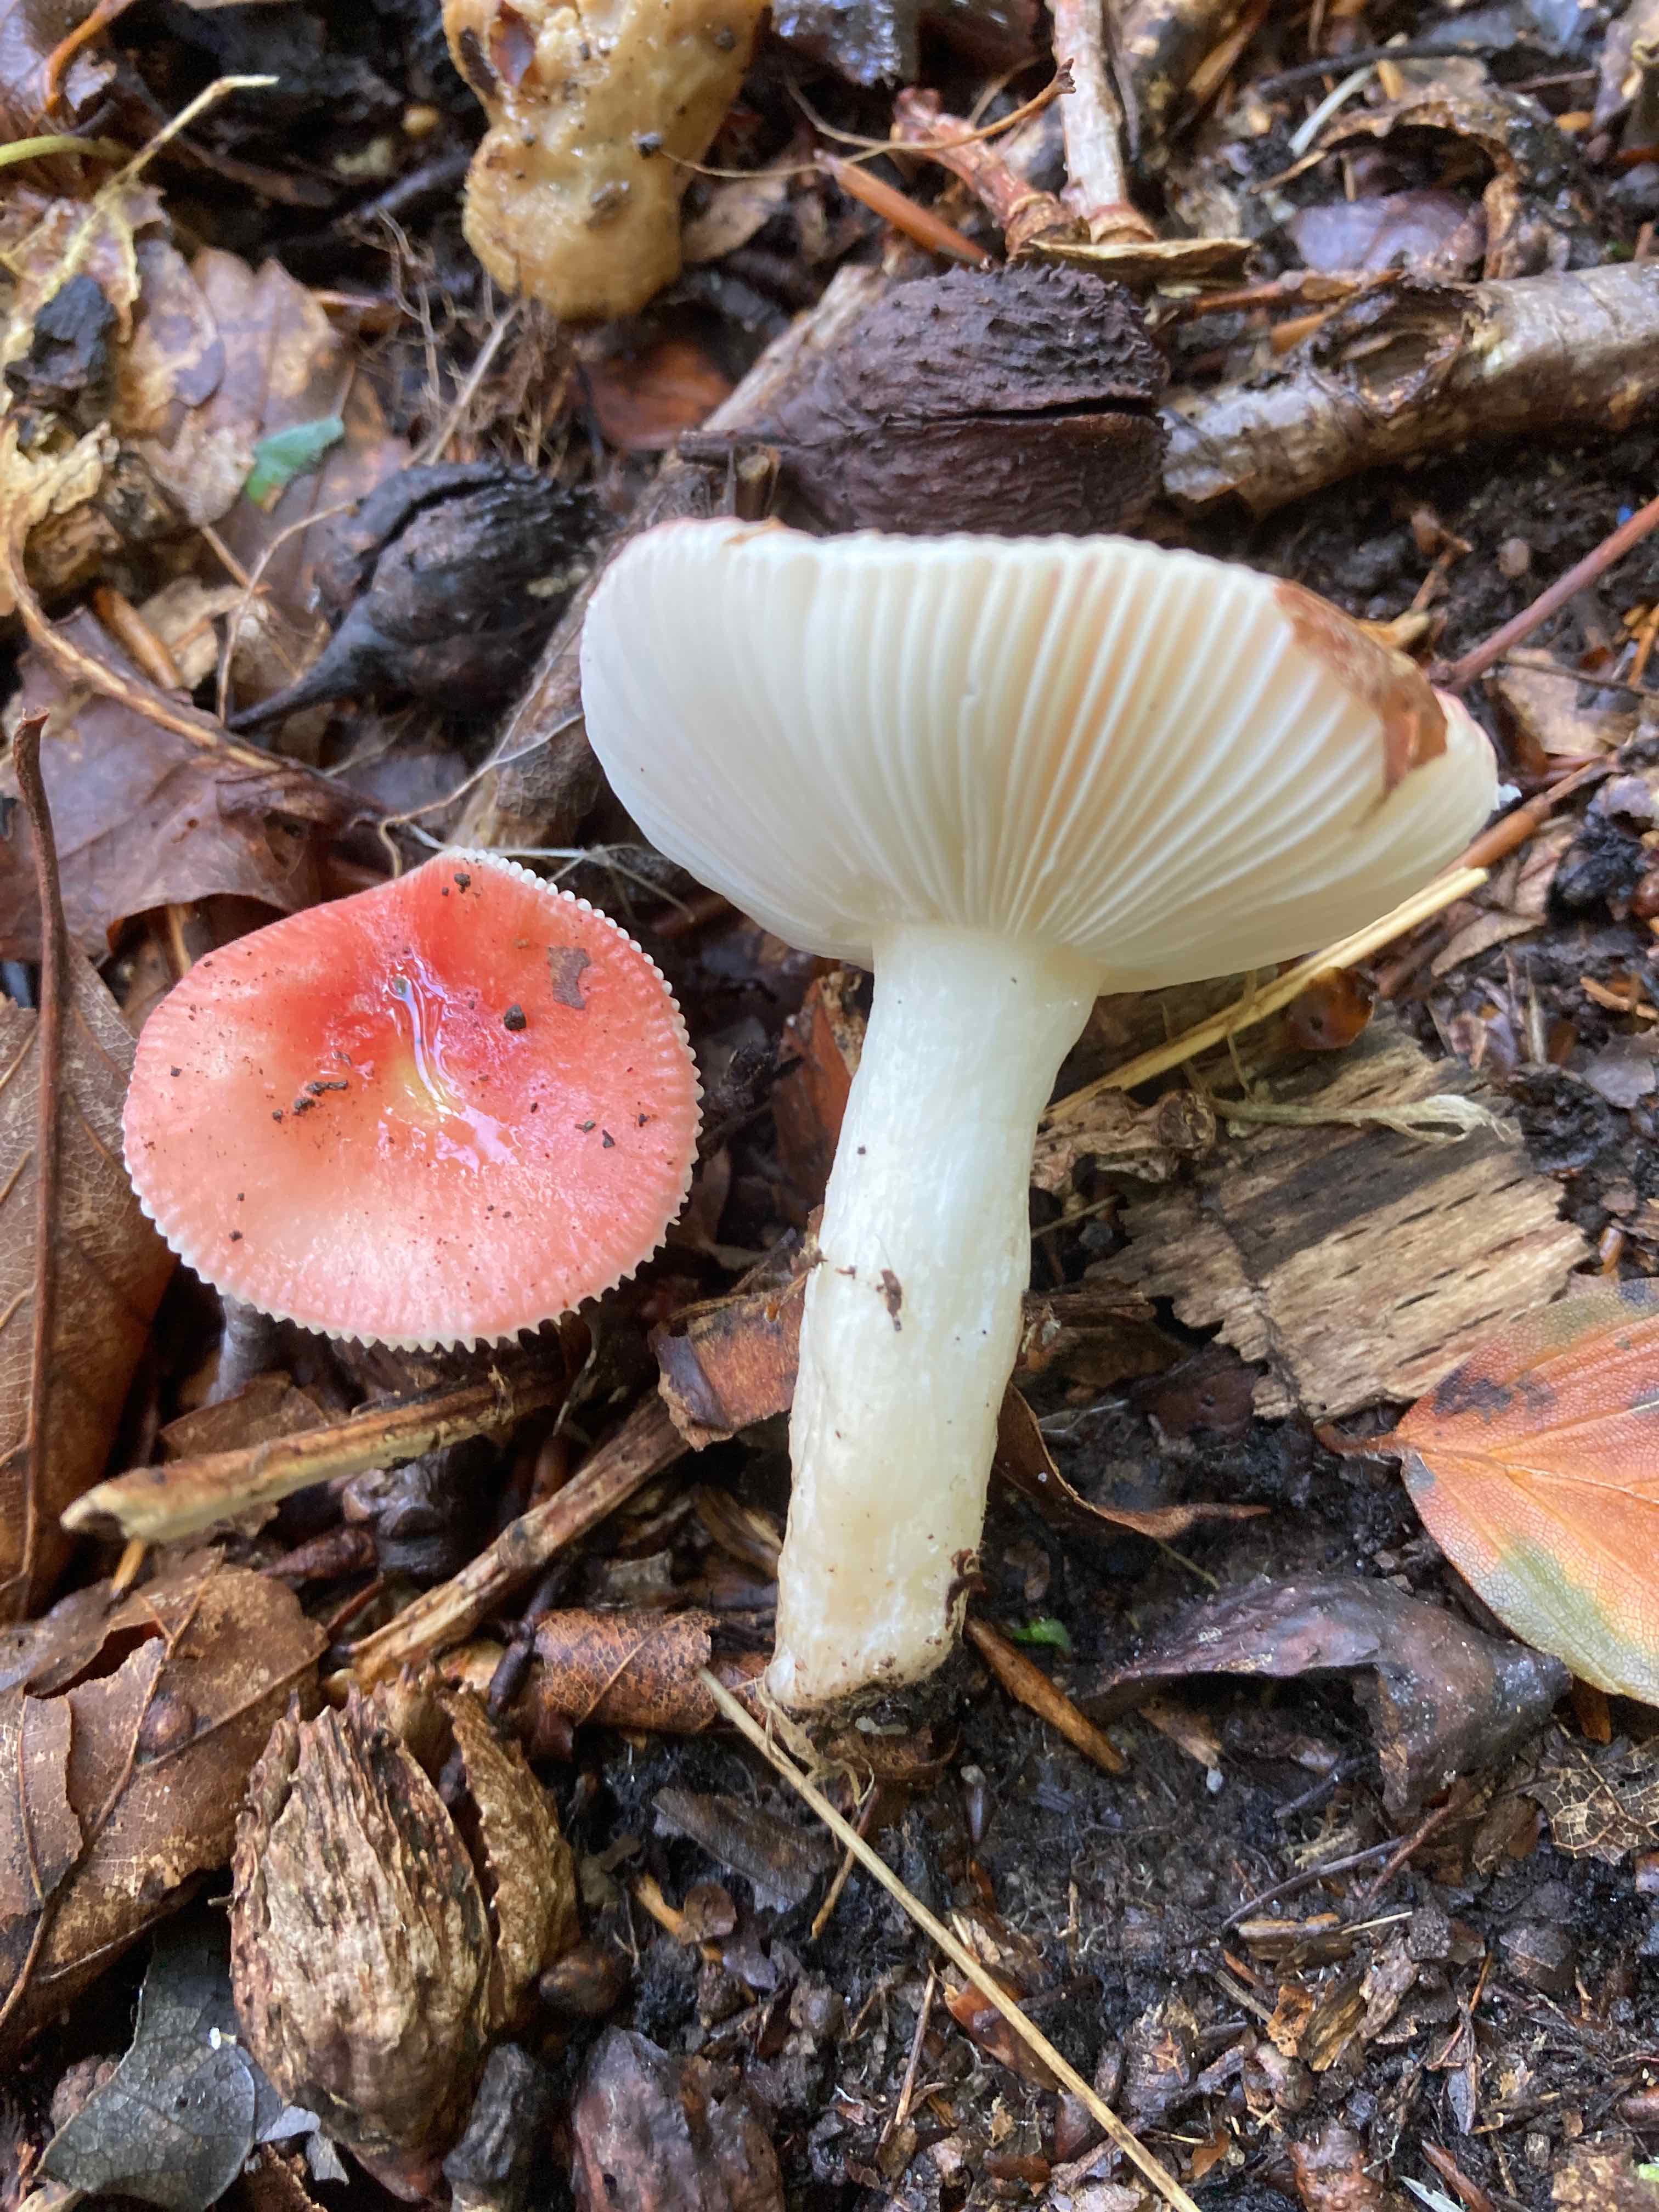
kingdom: Fungi
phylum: Basidiomycota
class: Agaricomycetes
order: Russulales
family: Russulaceae
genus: Russula
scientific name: Russula nobilis
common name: lille gift-skørhat
